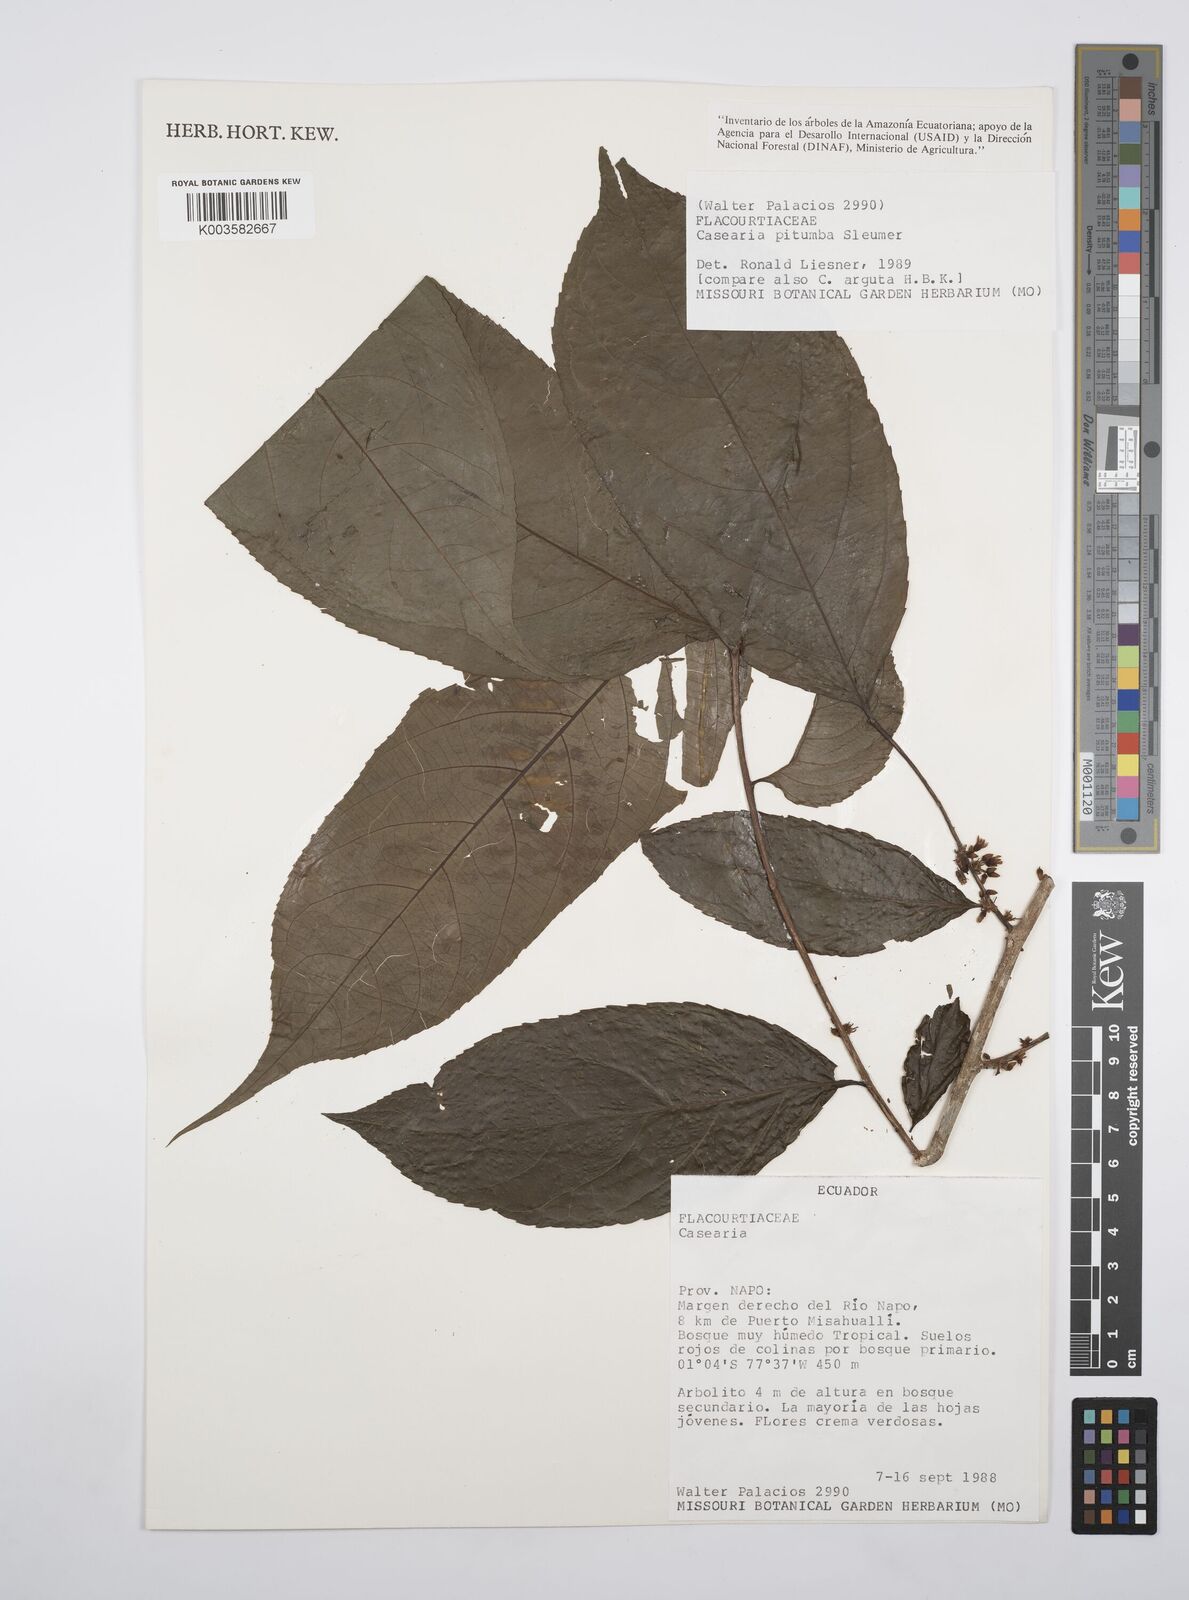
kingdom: Plantae
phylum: Tracheophyta
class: Magnoliopsida
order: Malpighiales
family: Salicaceae
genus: Casearia
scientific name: Casearia pitumba
